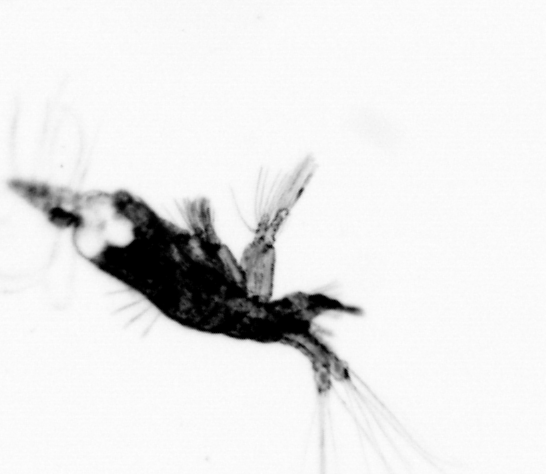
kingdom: Animalia
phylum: Arthropoda
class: Copepoda
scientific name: Copepoda
